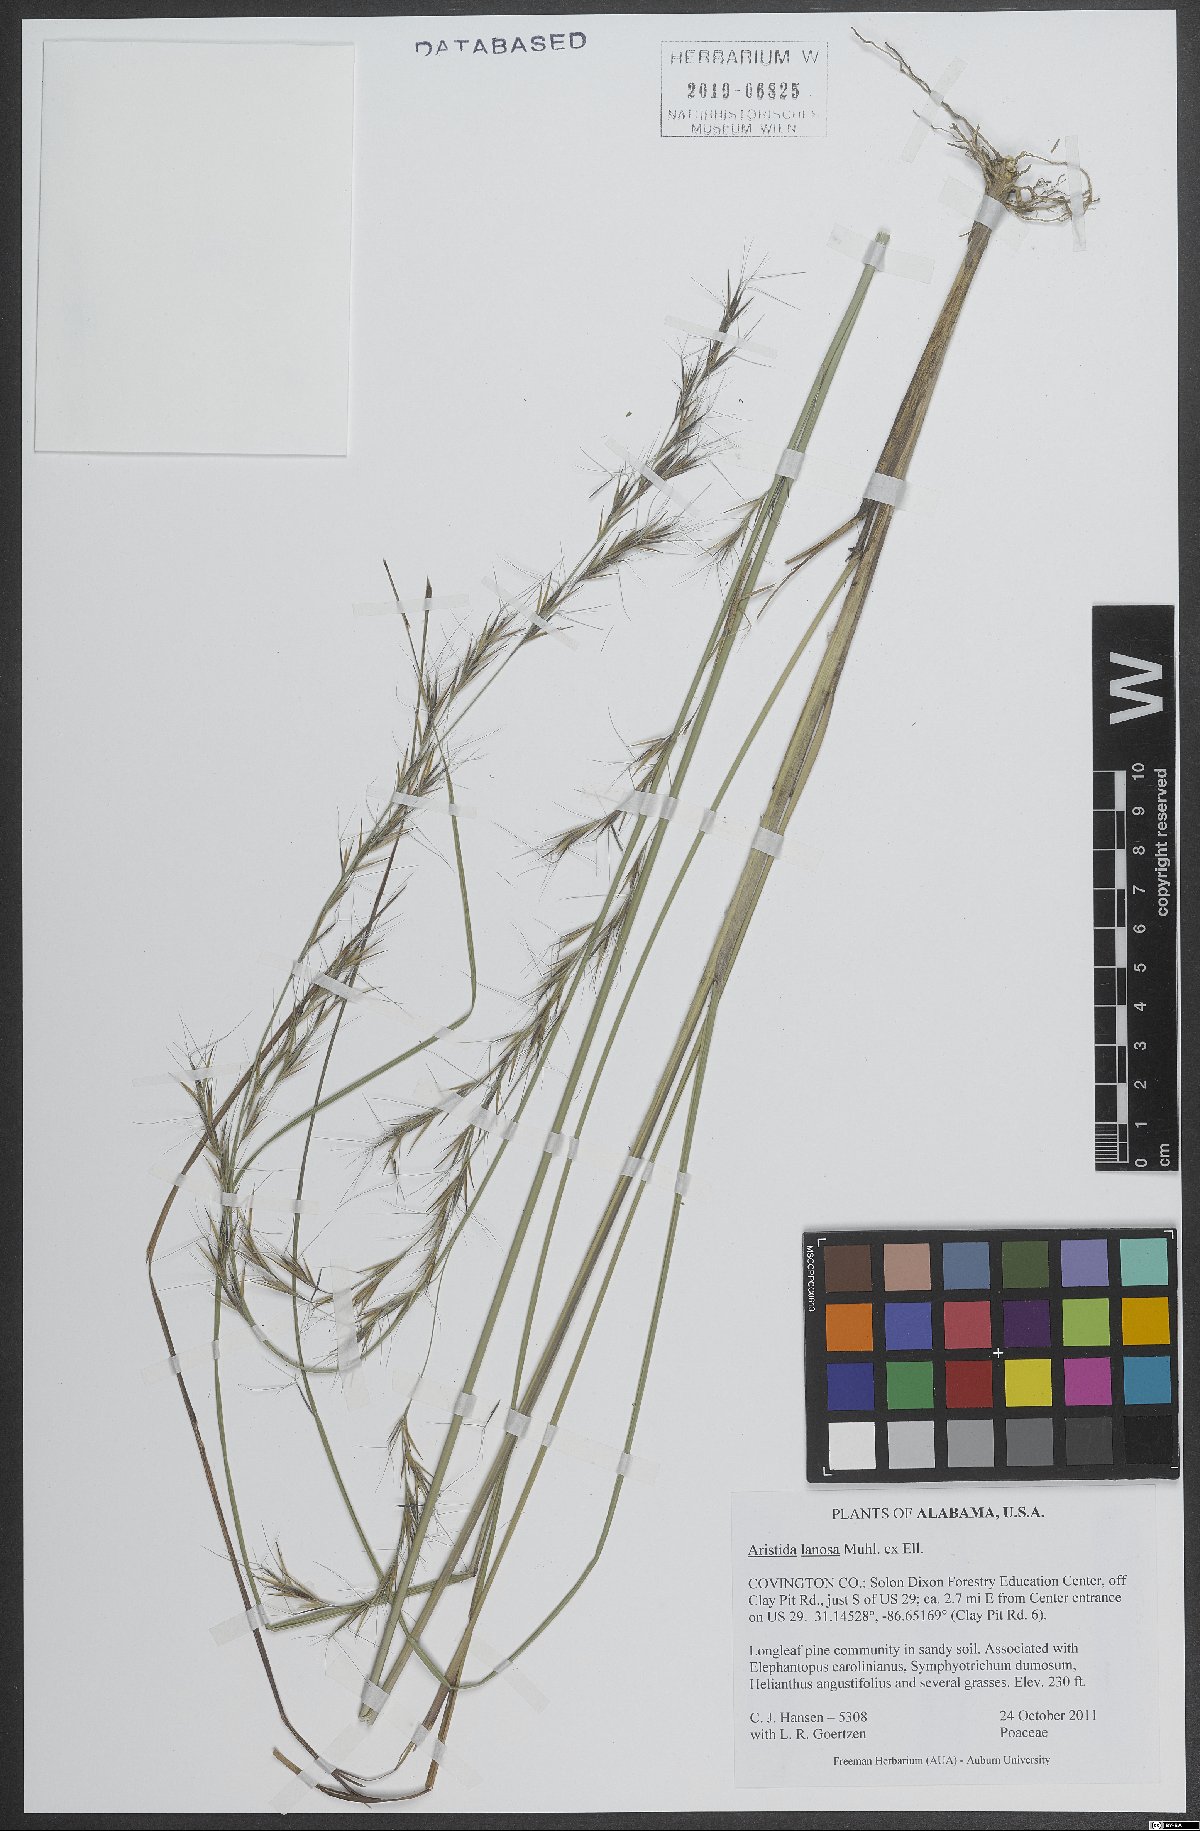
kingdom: Plantae
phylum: Tracheophyta
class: Liliopsida
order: Poales
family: Poaceae
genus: Aristida
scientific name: Aristida lanosa
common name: Woolly three-awn
